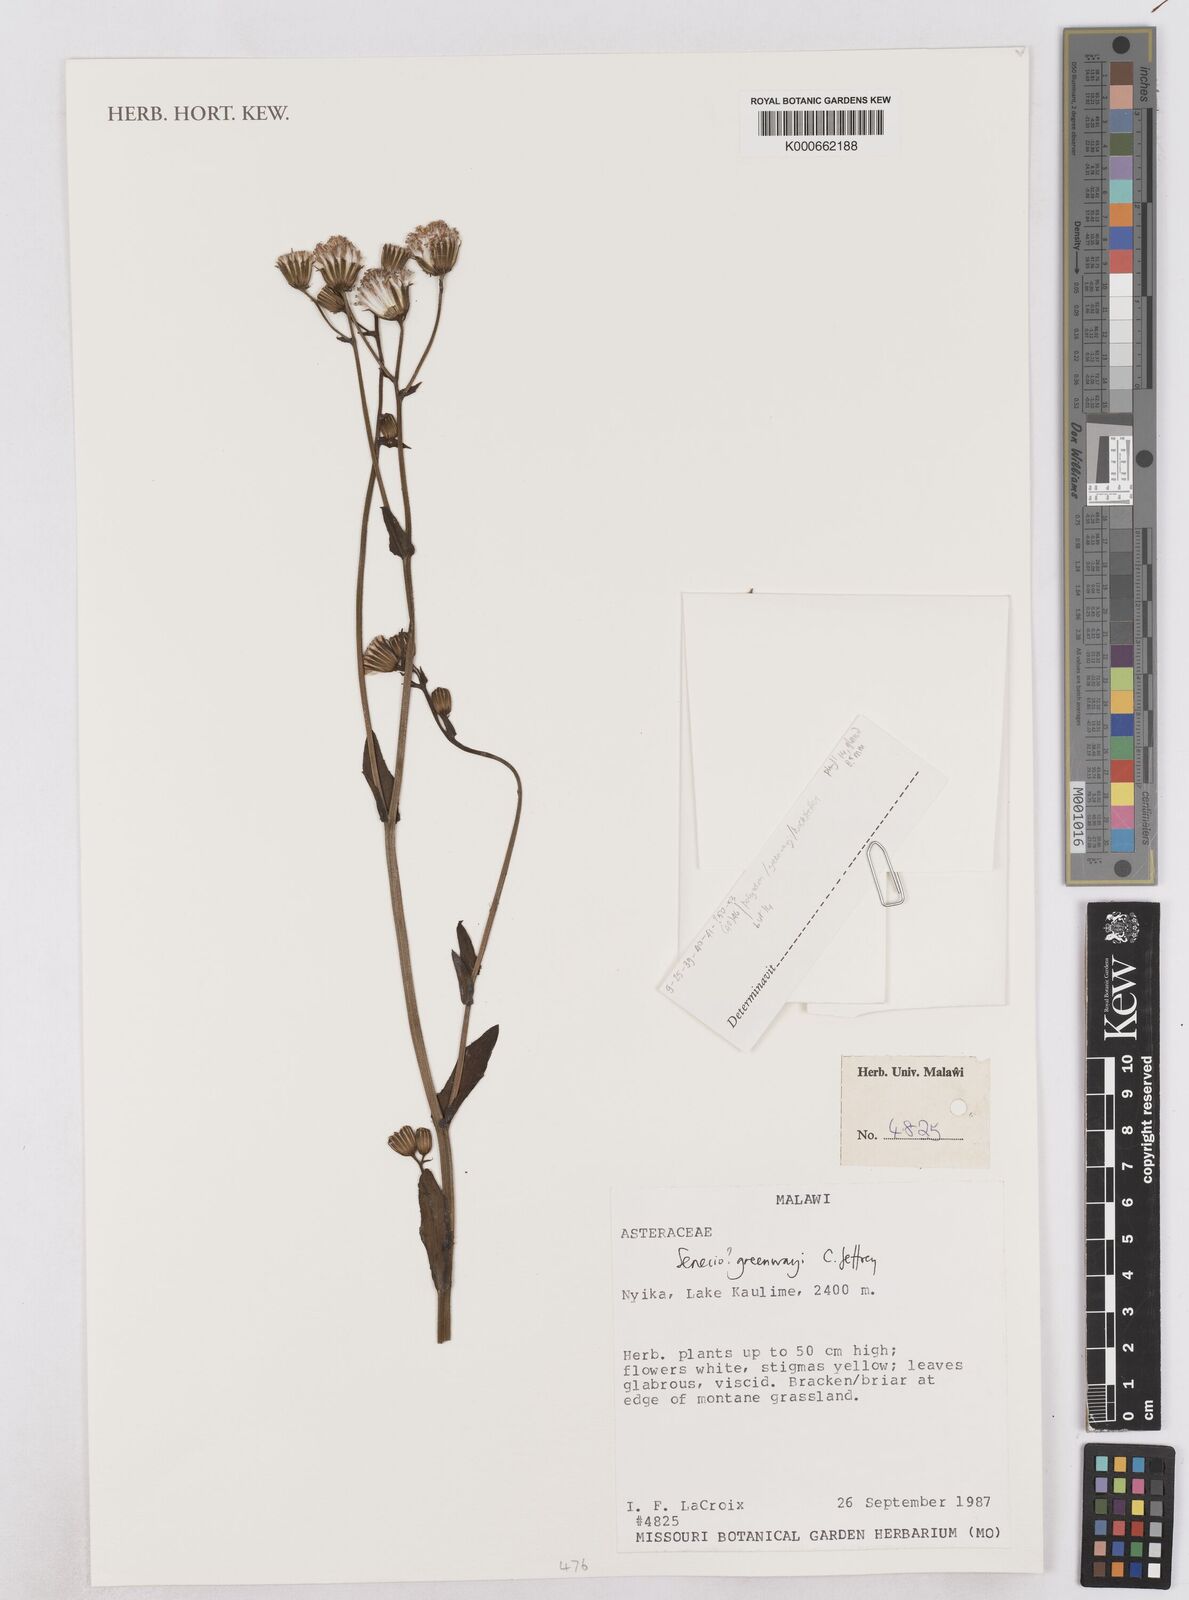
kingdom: Plantae
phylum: Tracheophyta
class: Magnoliopsida
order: Asterales
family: Asteraceae
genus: Senecio
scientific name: Senecio greenwayi
